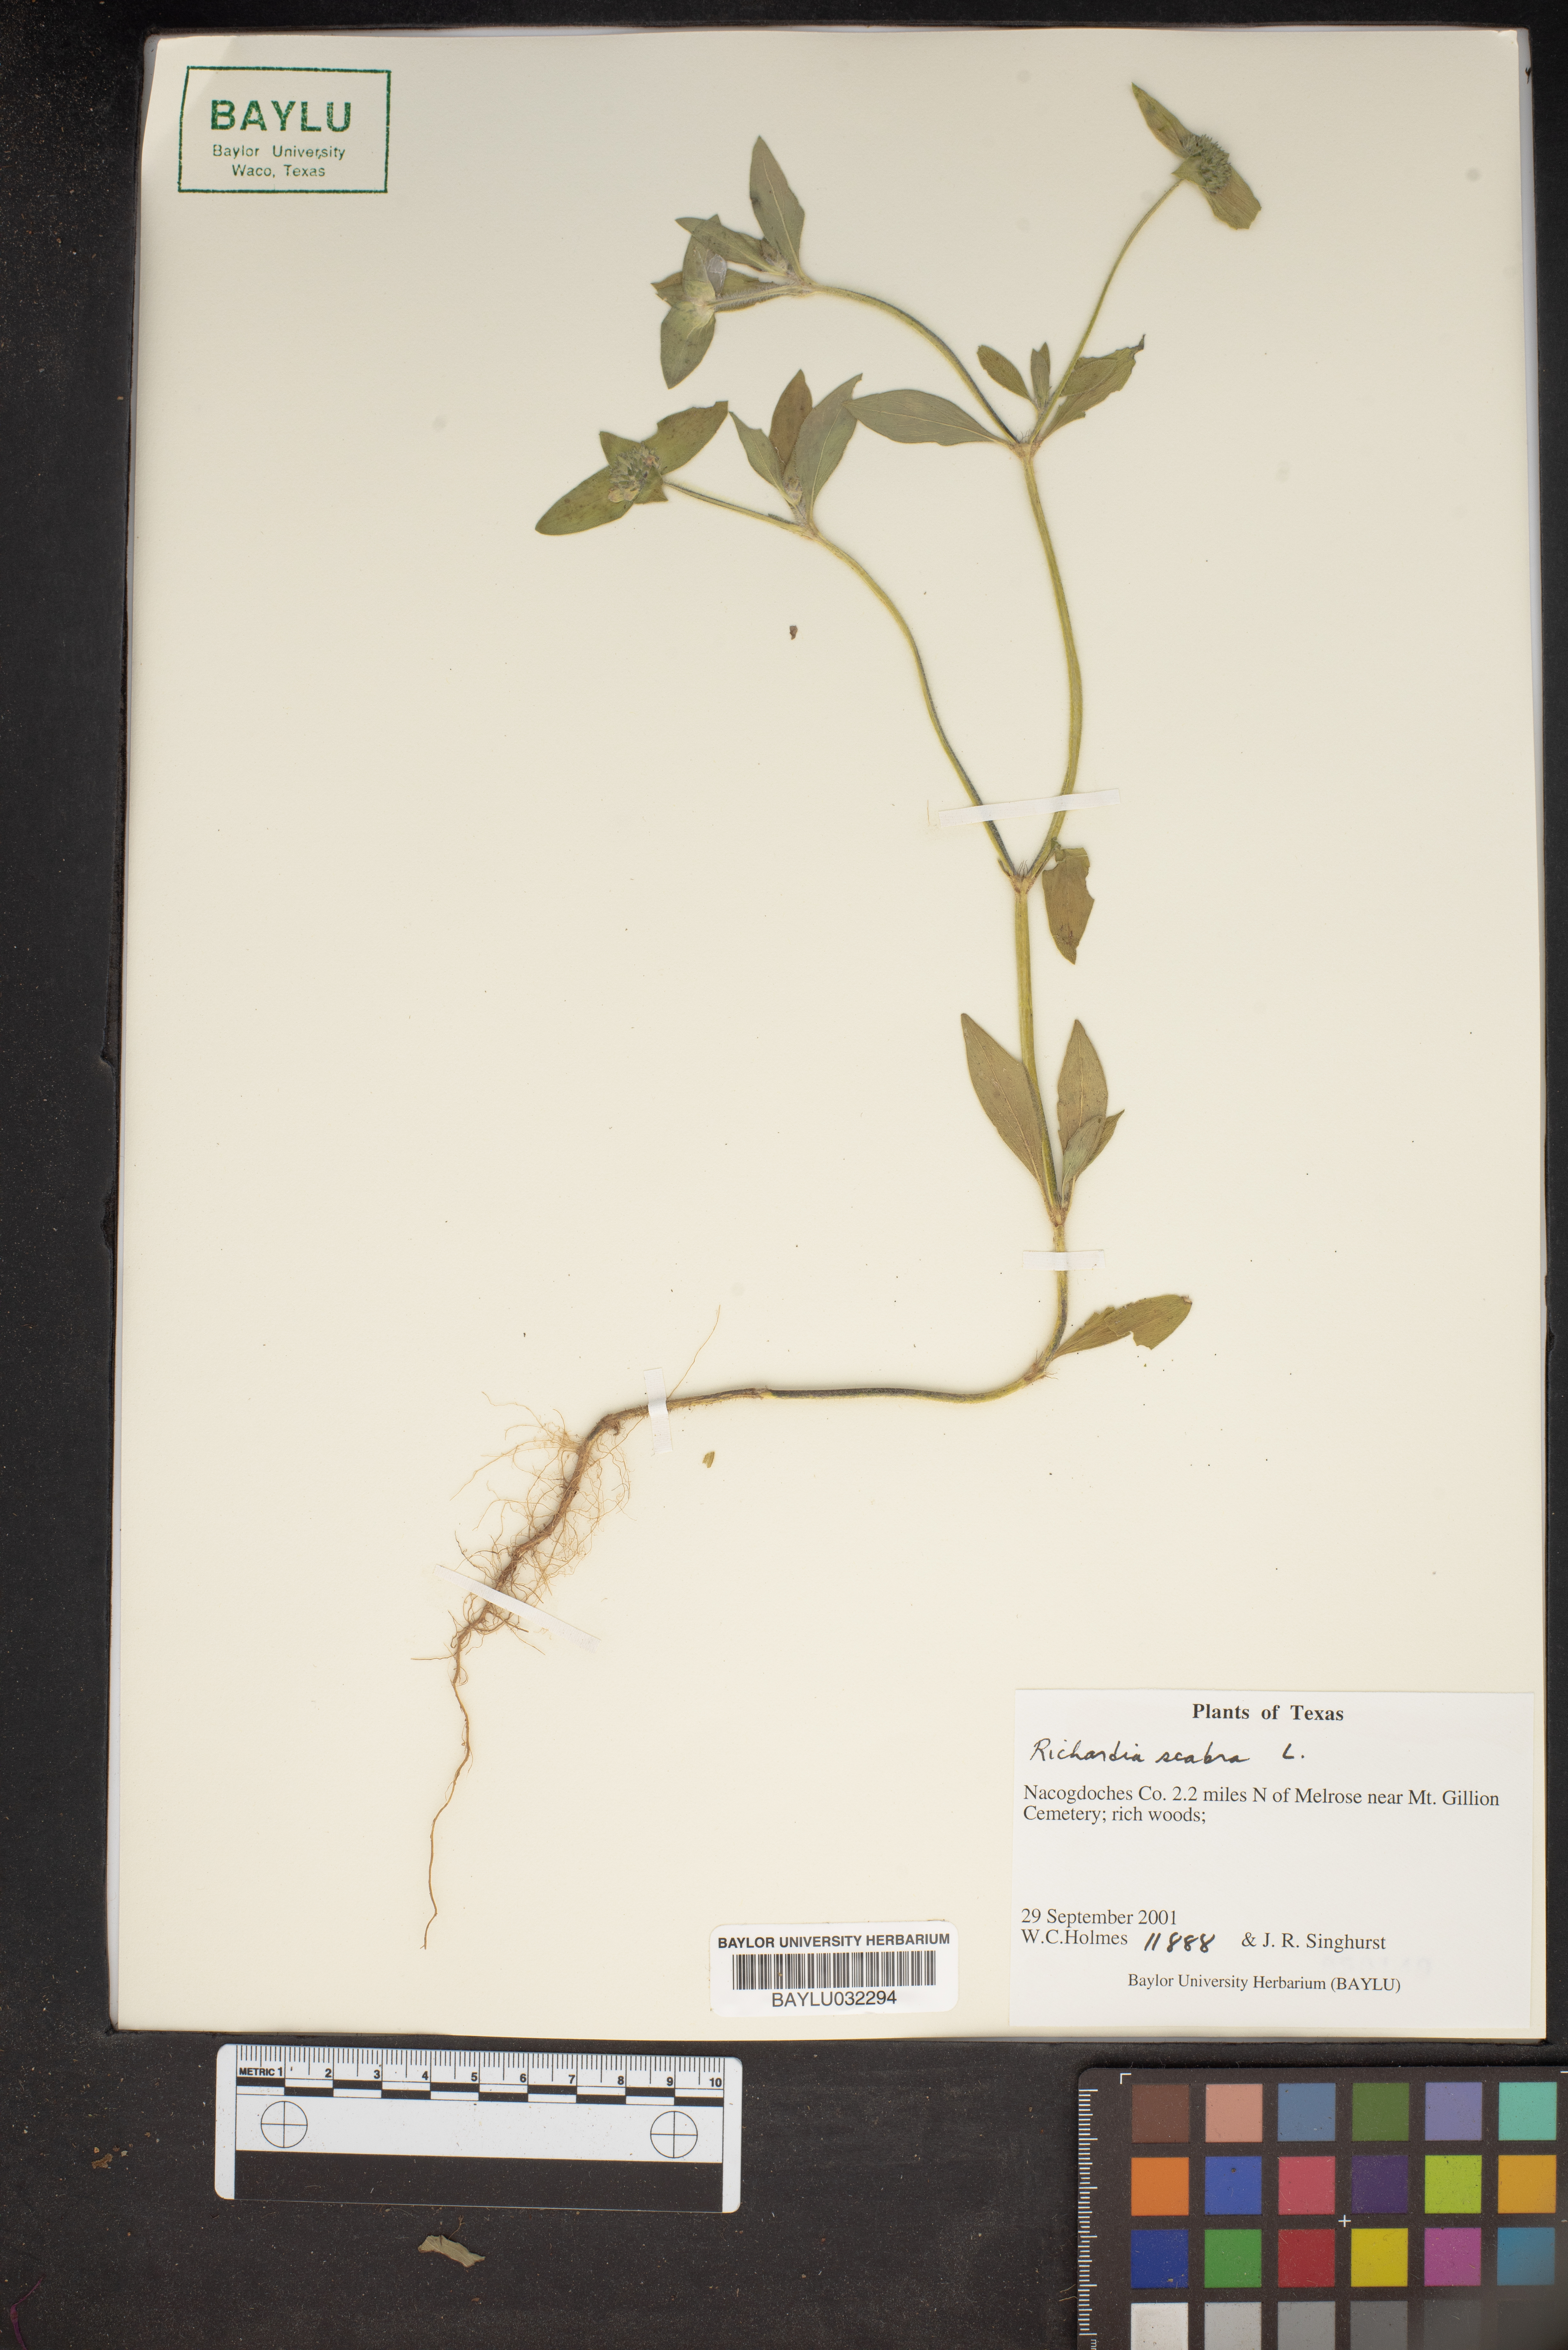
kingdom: Plantae
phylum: Tracheophyta
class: Magnoliopsida
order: Gentianales
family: Rubiaceae
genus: Richardia
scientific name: Richardia scabra
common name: Rough mexican clover
